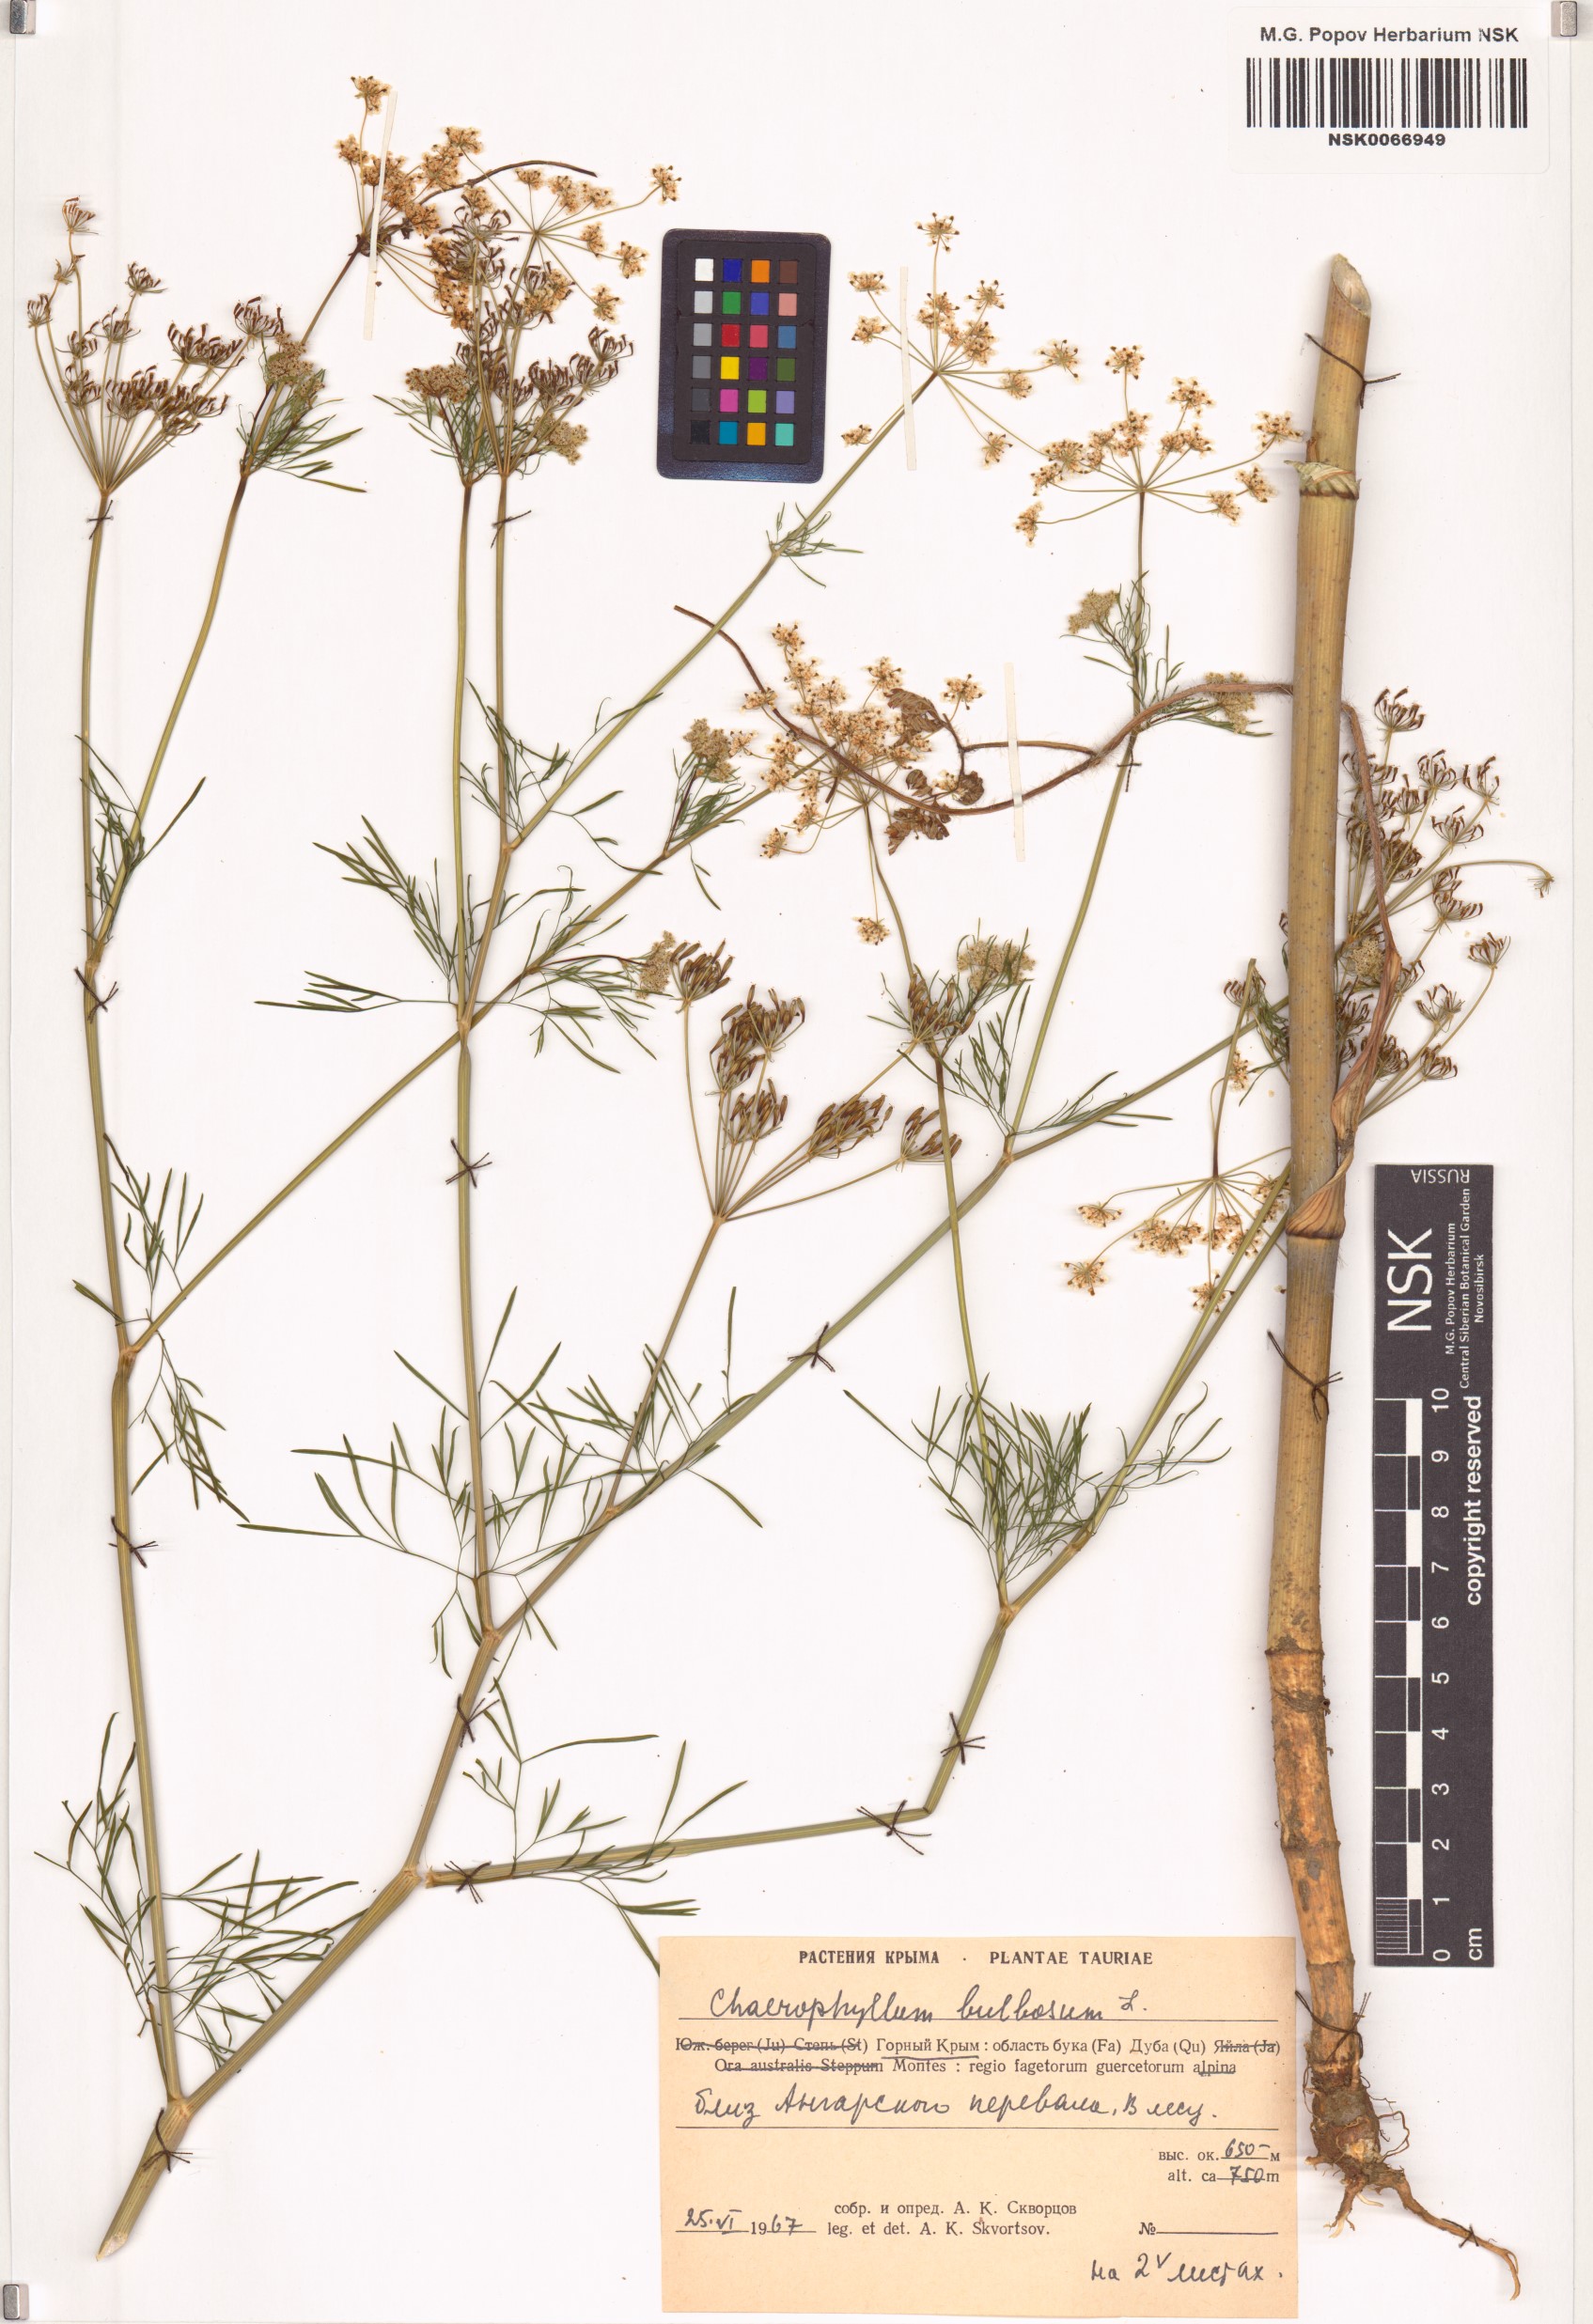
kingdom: Plantae
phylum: Tracheophyta
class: Magnoliopsida
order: Apiales
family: Apiaceae
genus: Chaerophyllum
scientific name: Chaerophyllum bulbosum
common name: Bulbous chervil
